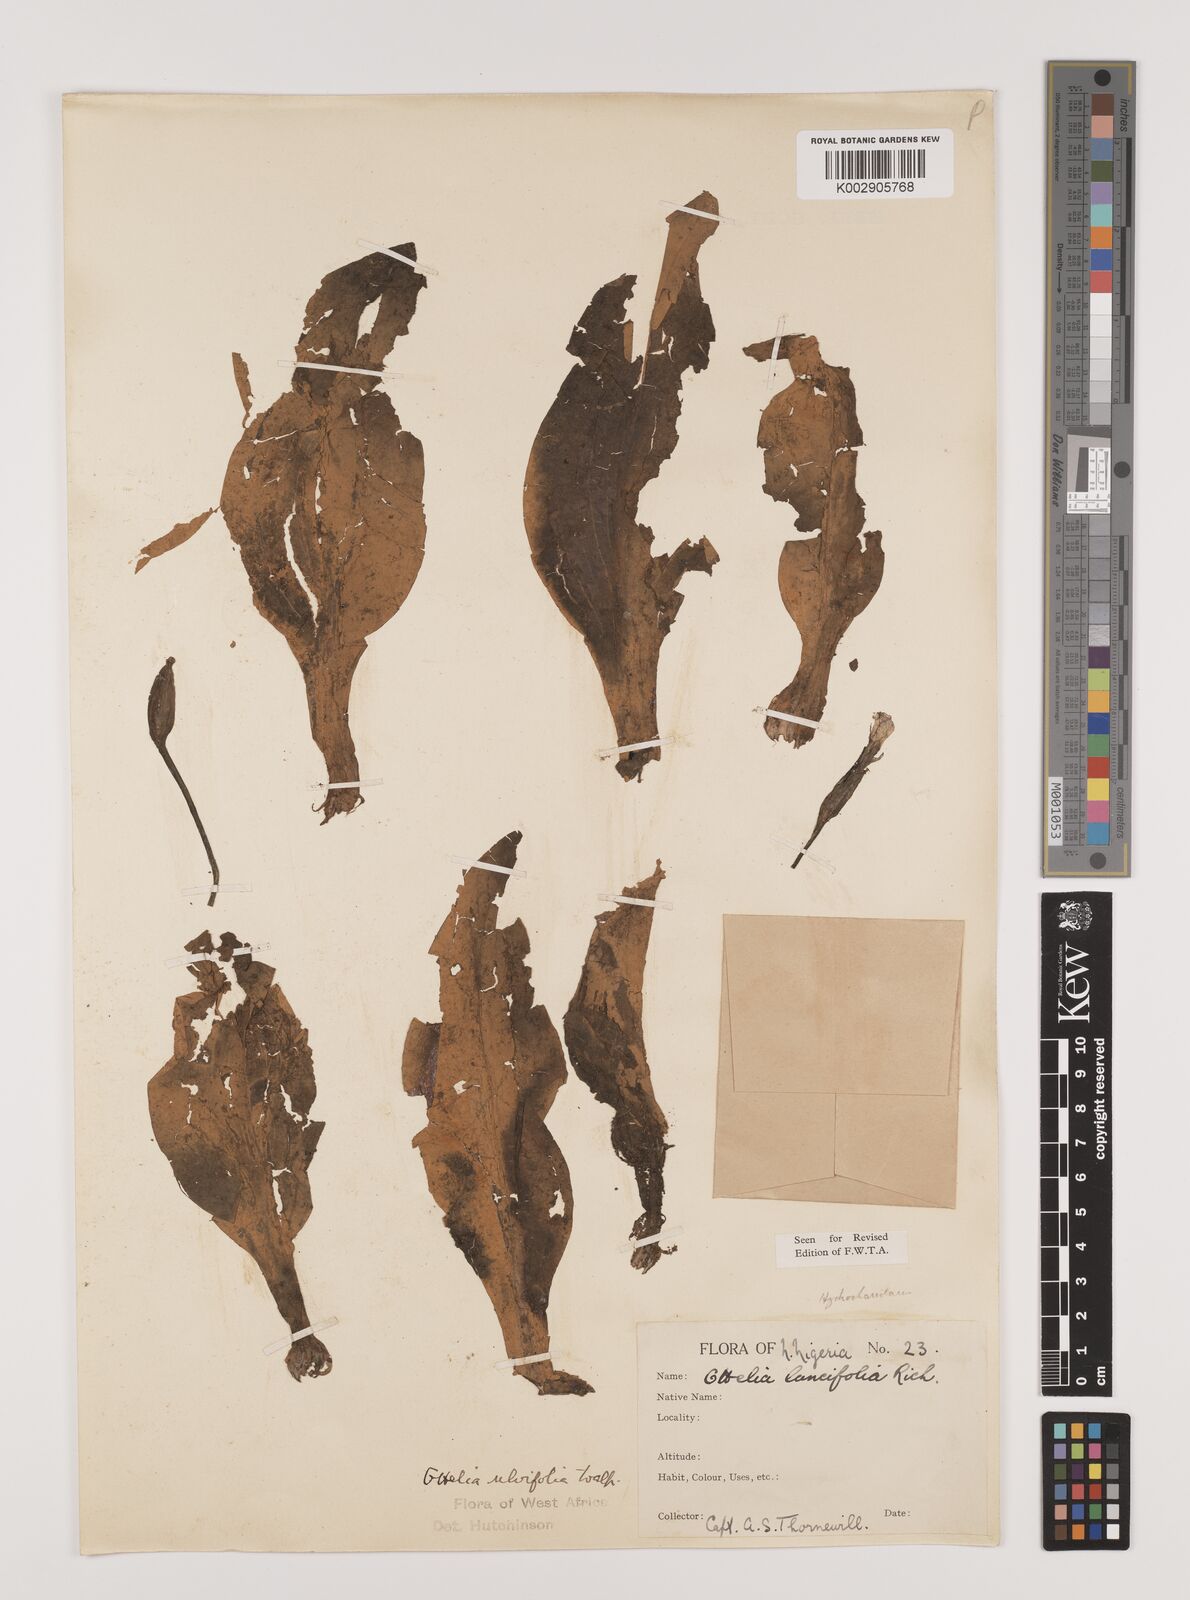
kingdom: Plantae
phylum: Tracheophyta
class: Liliopsida
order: Alismatales
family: Hydrocharitaceae
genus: Ottelia
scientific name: Ottelia ulvifolia
